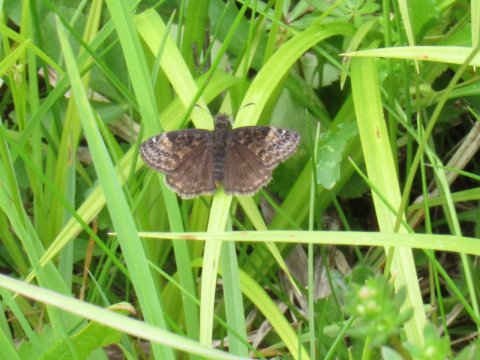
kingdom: Animalia
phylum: Arthropoda
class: Insecta
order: Lepidoptera
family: Hesperiidae
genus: Gesta
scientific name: Gesta
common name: Wild Indigo Duskywing
